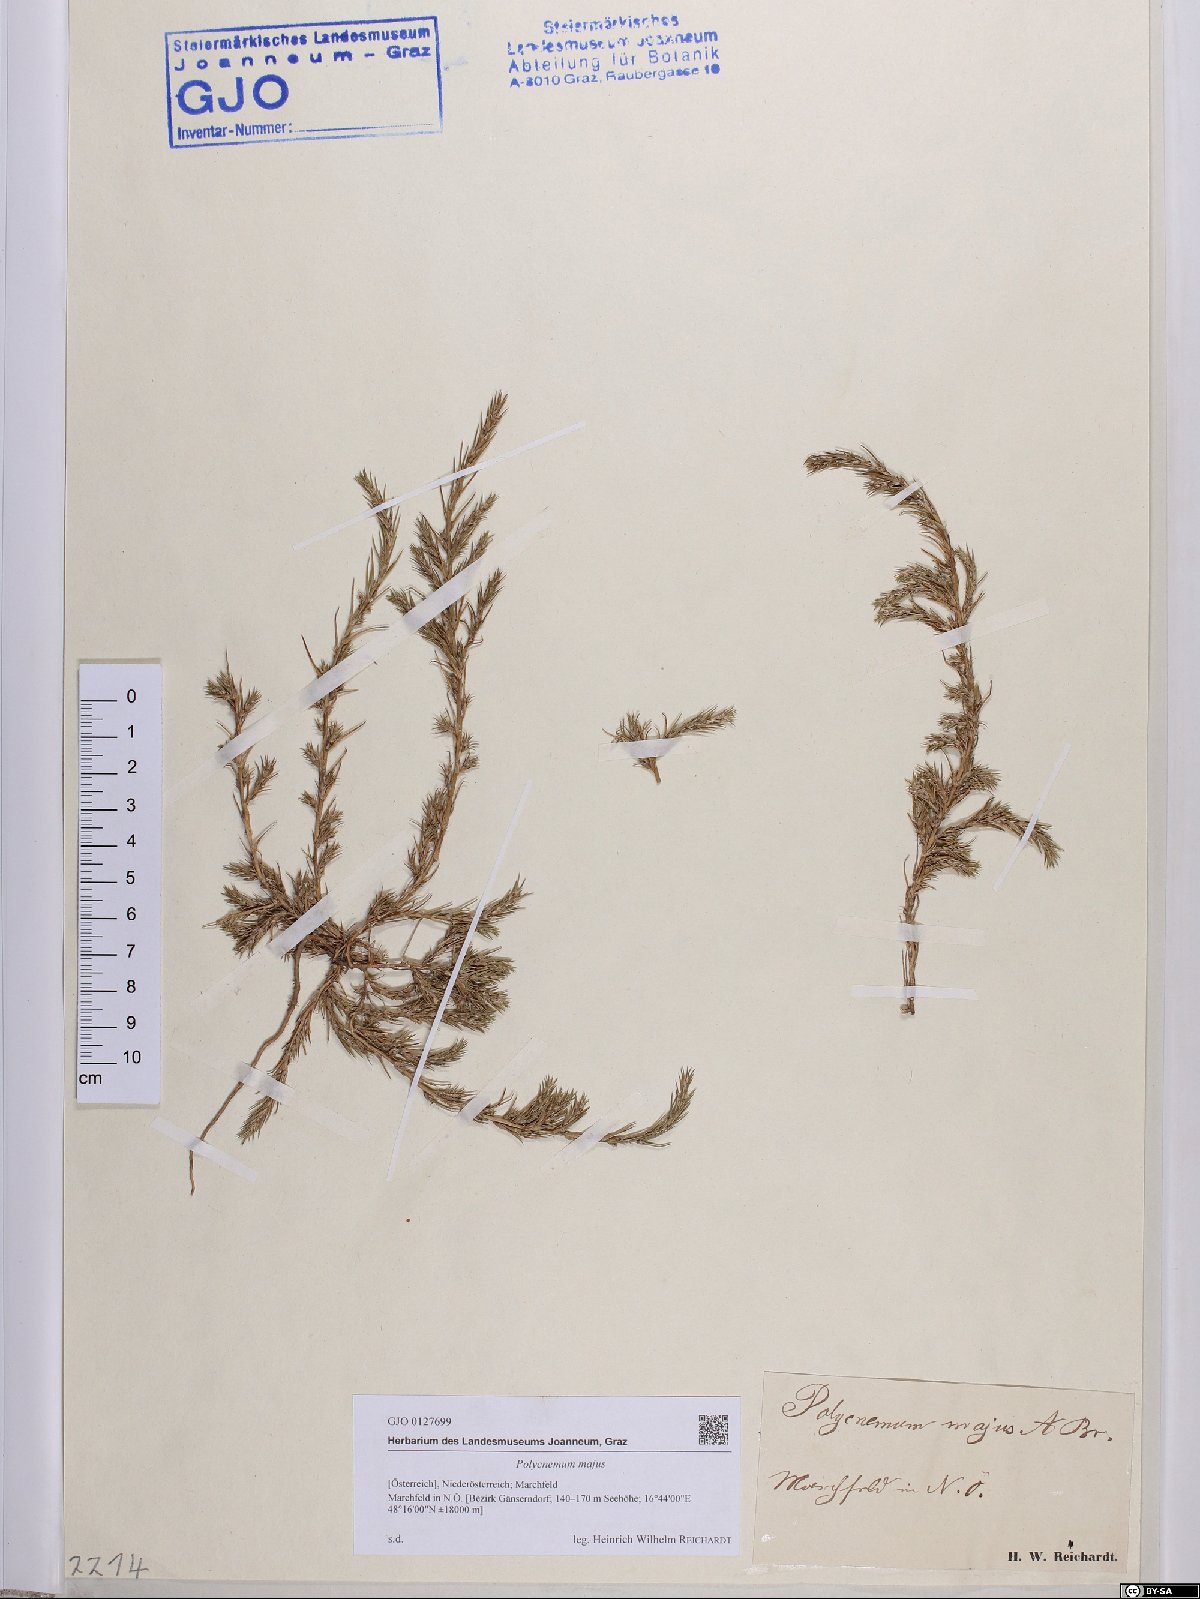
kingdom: Plantae
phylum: Tracheophyta
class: Magnoliopsida
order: Caryophyllales
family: Amaranthaceae
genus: Polycnemum
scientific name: Polycnemum majus
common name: Giant needleleaf
